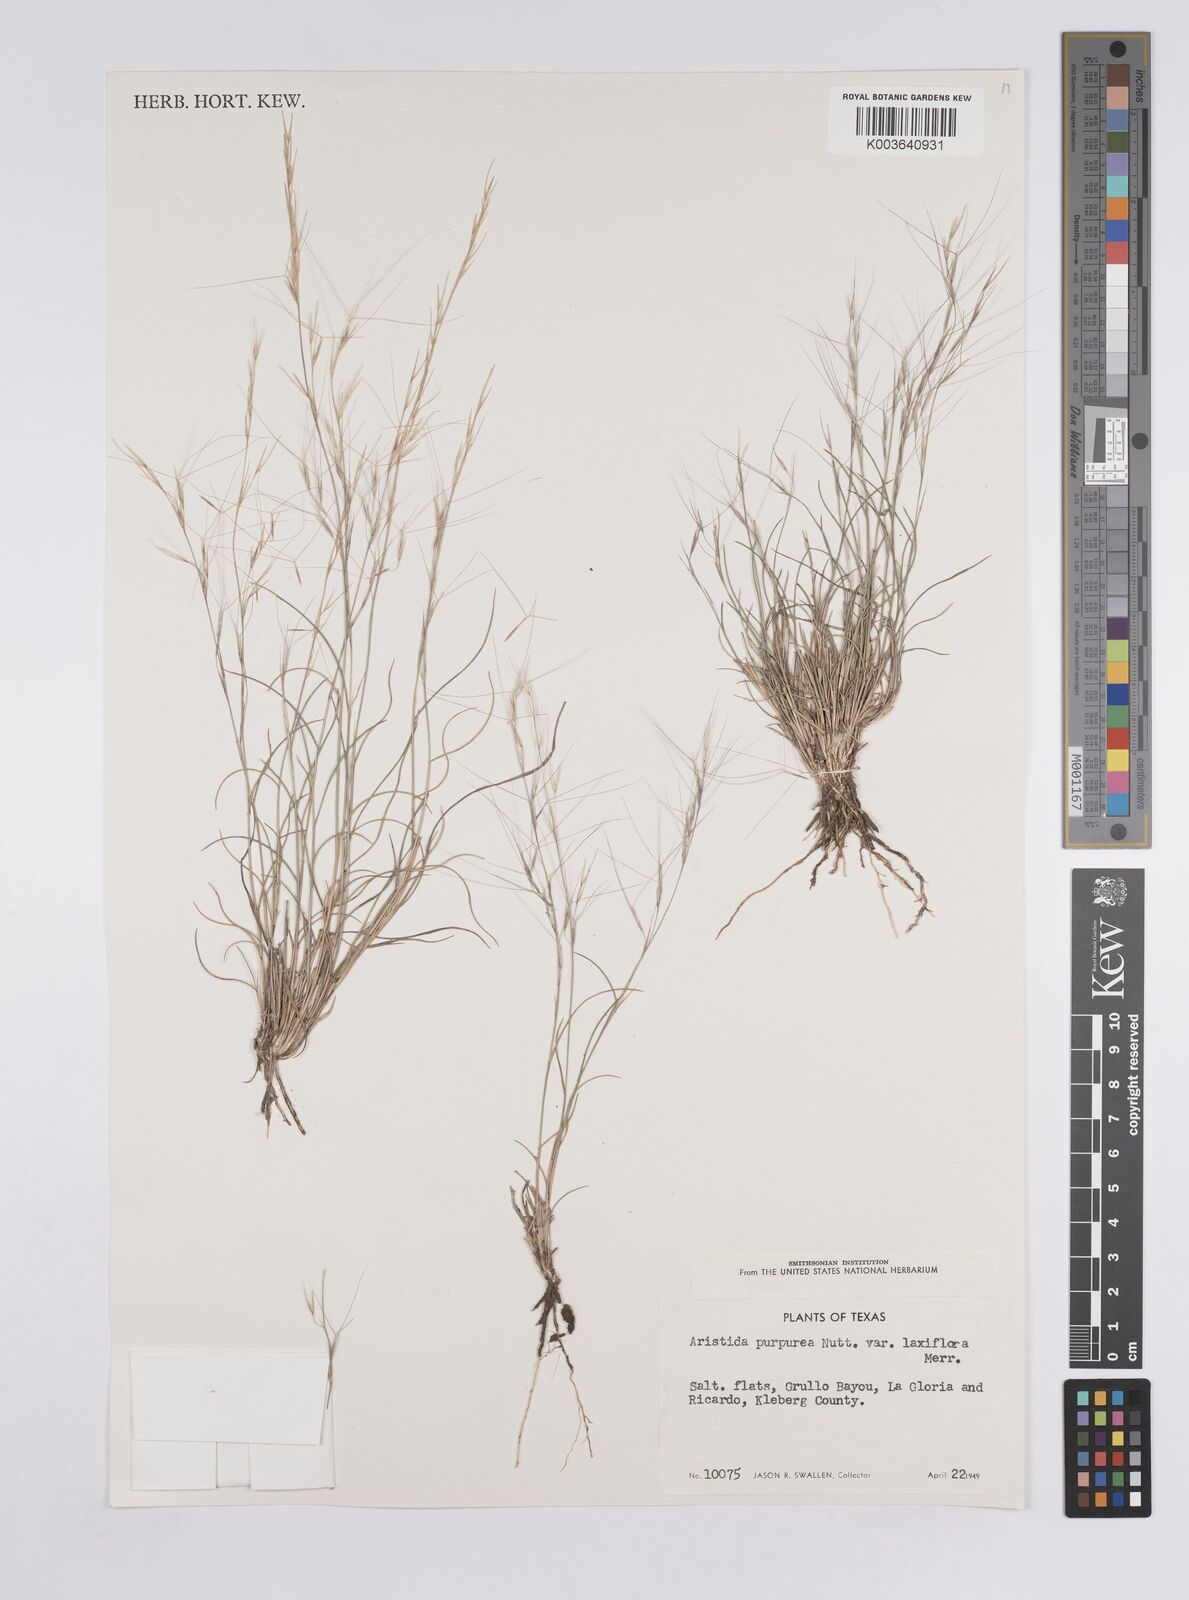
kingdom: Plantae
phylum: Tracheophyta
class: Liliopsida
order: Poales
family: Poaceae
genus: Aristida
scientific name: Aristida purpurea
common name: Purple threeawn
